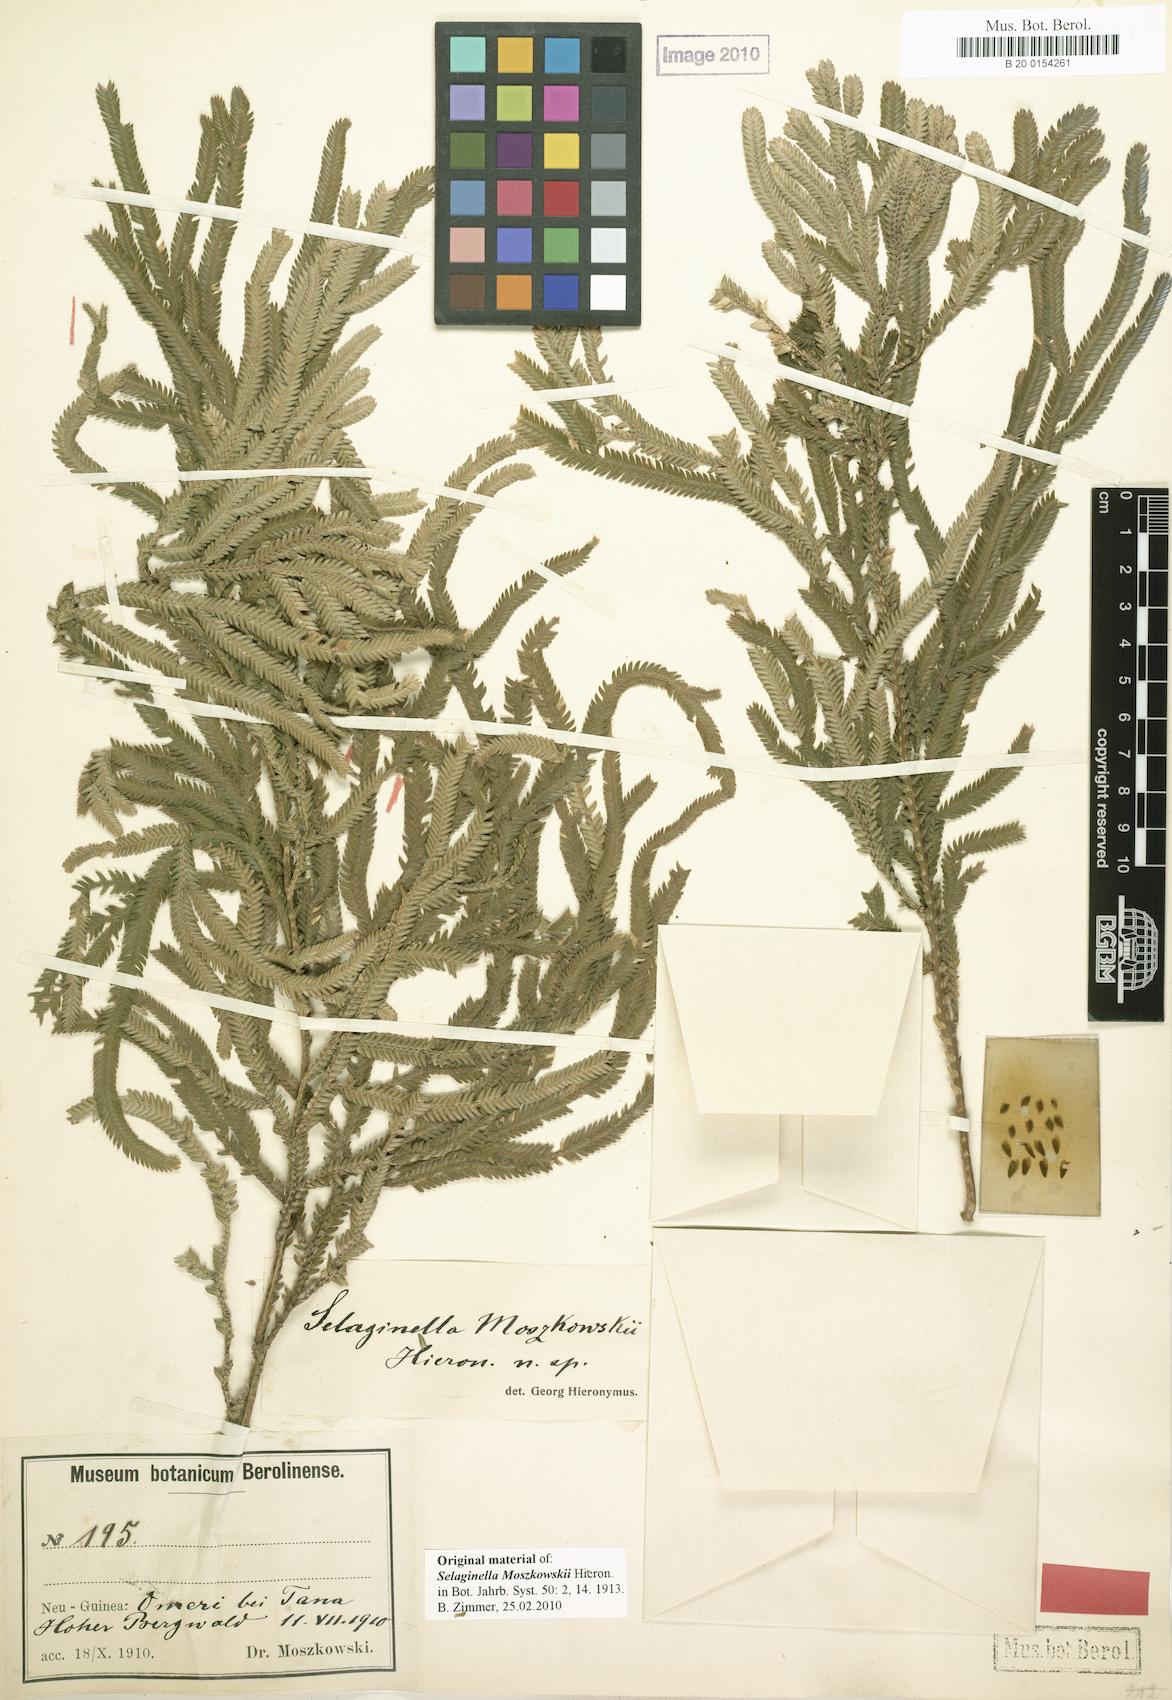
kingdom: Plantae
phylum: Tracheophyta
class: Lycopodiopsida
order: Selaginellales
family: Selaginellaceae
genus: Selaginella
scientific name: Selaginella moszkowskii
